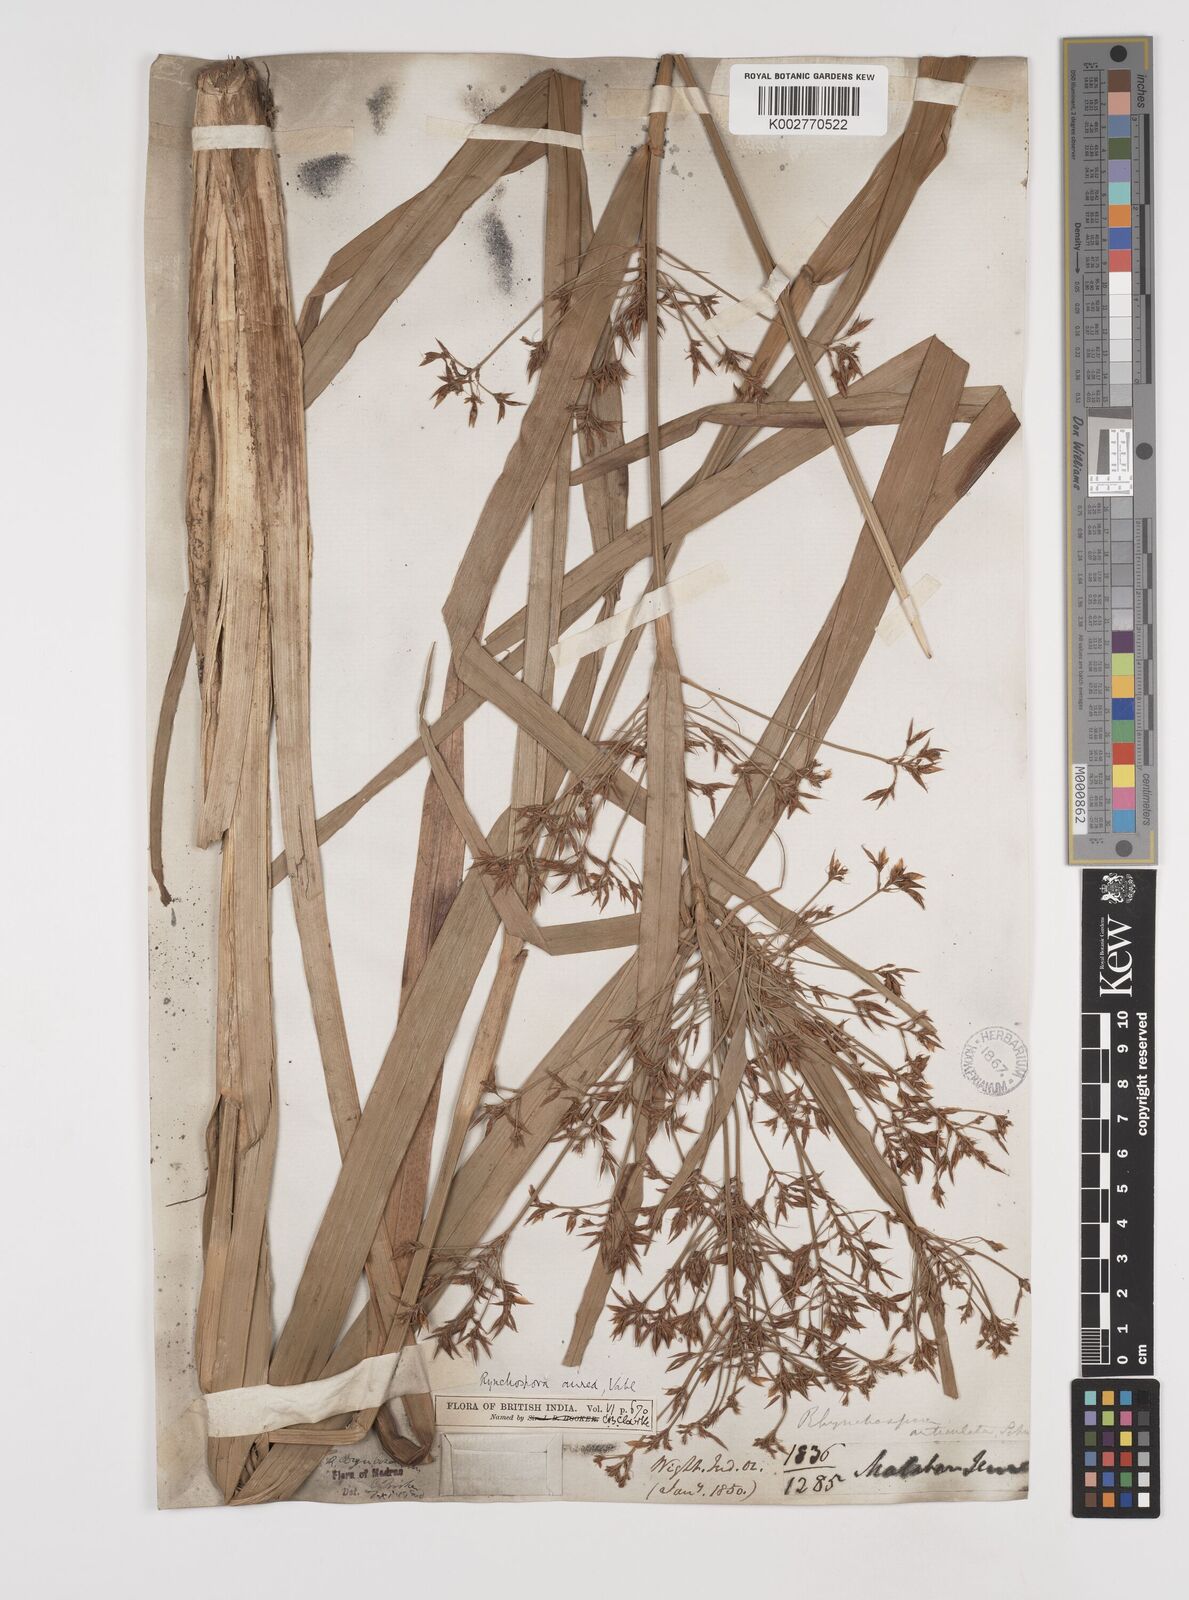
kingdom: Plantae
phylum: Tracheophyta
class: Liliopsida
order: Poales
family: Cyperaceae
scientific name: Cyperaceae
